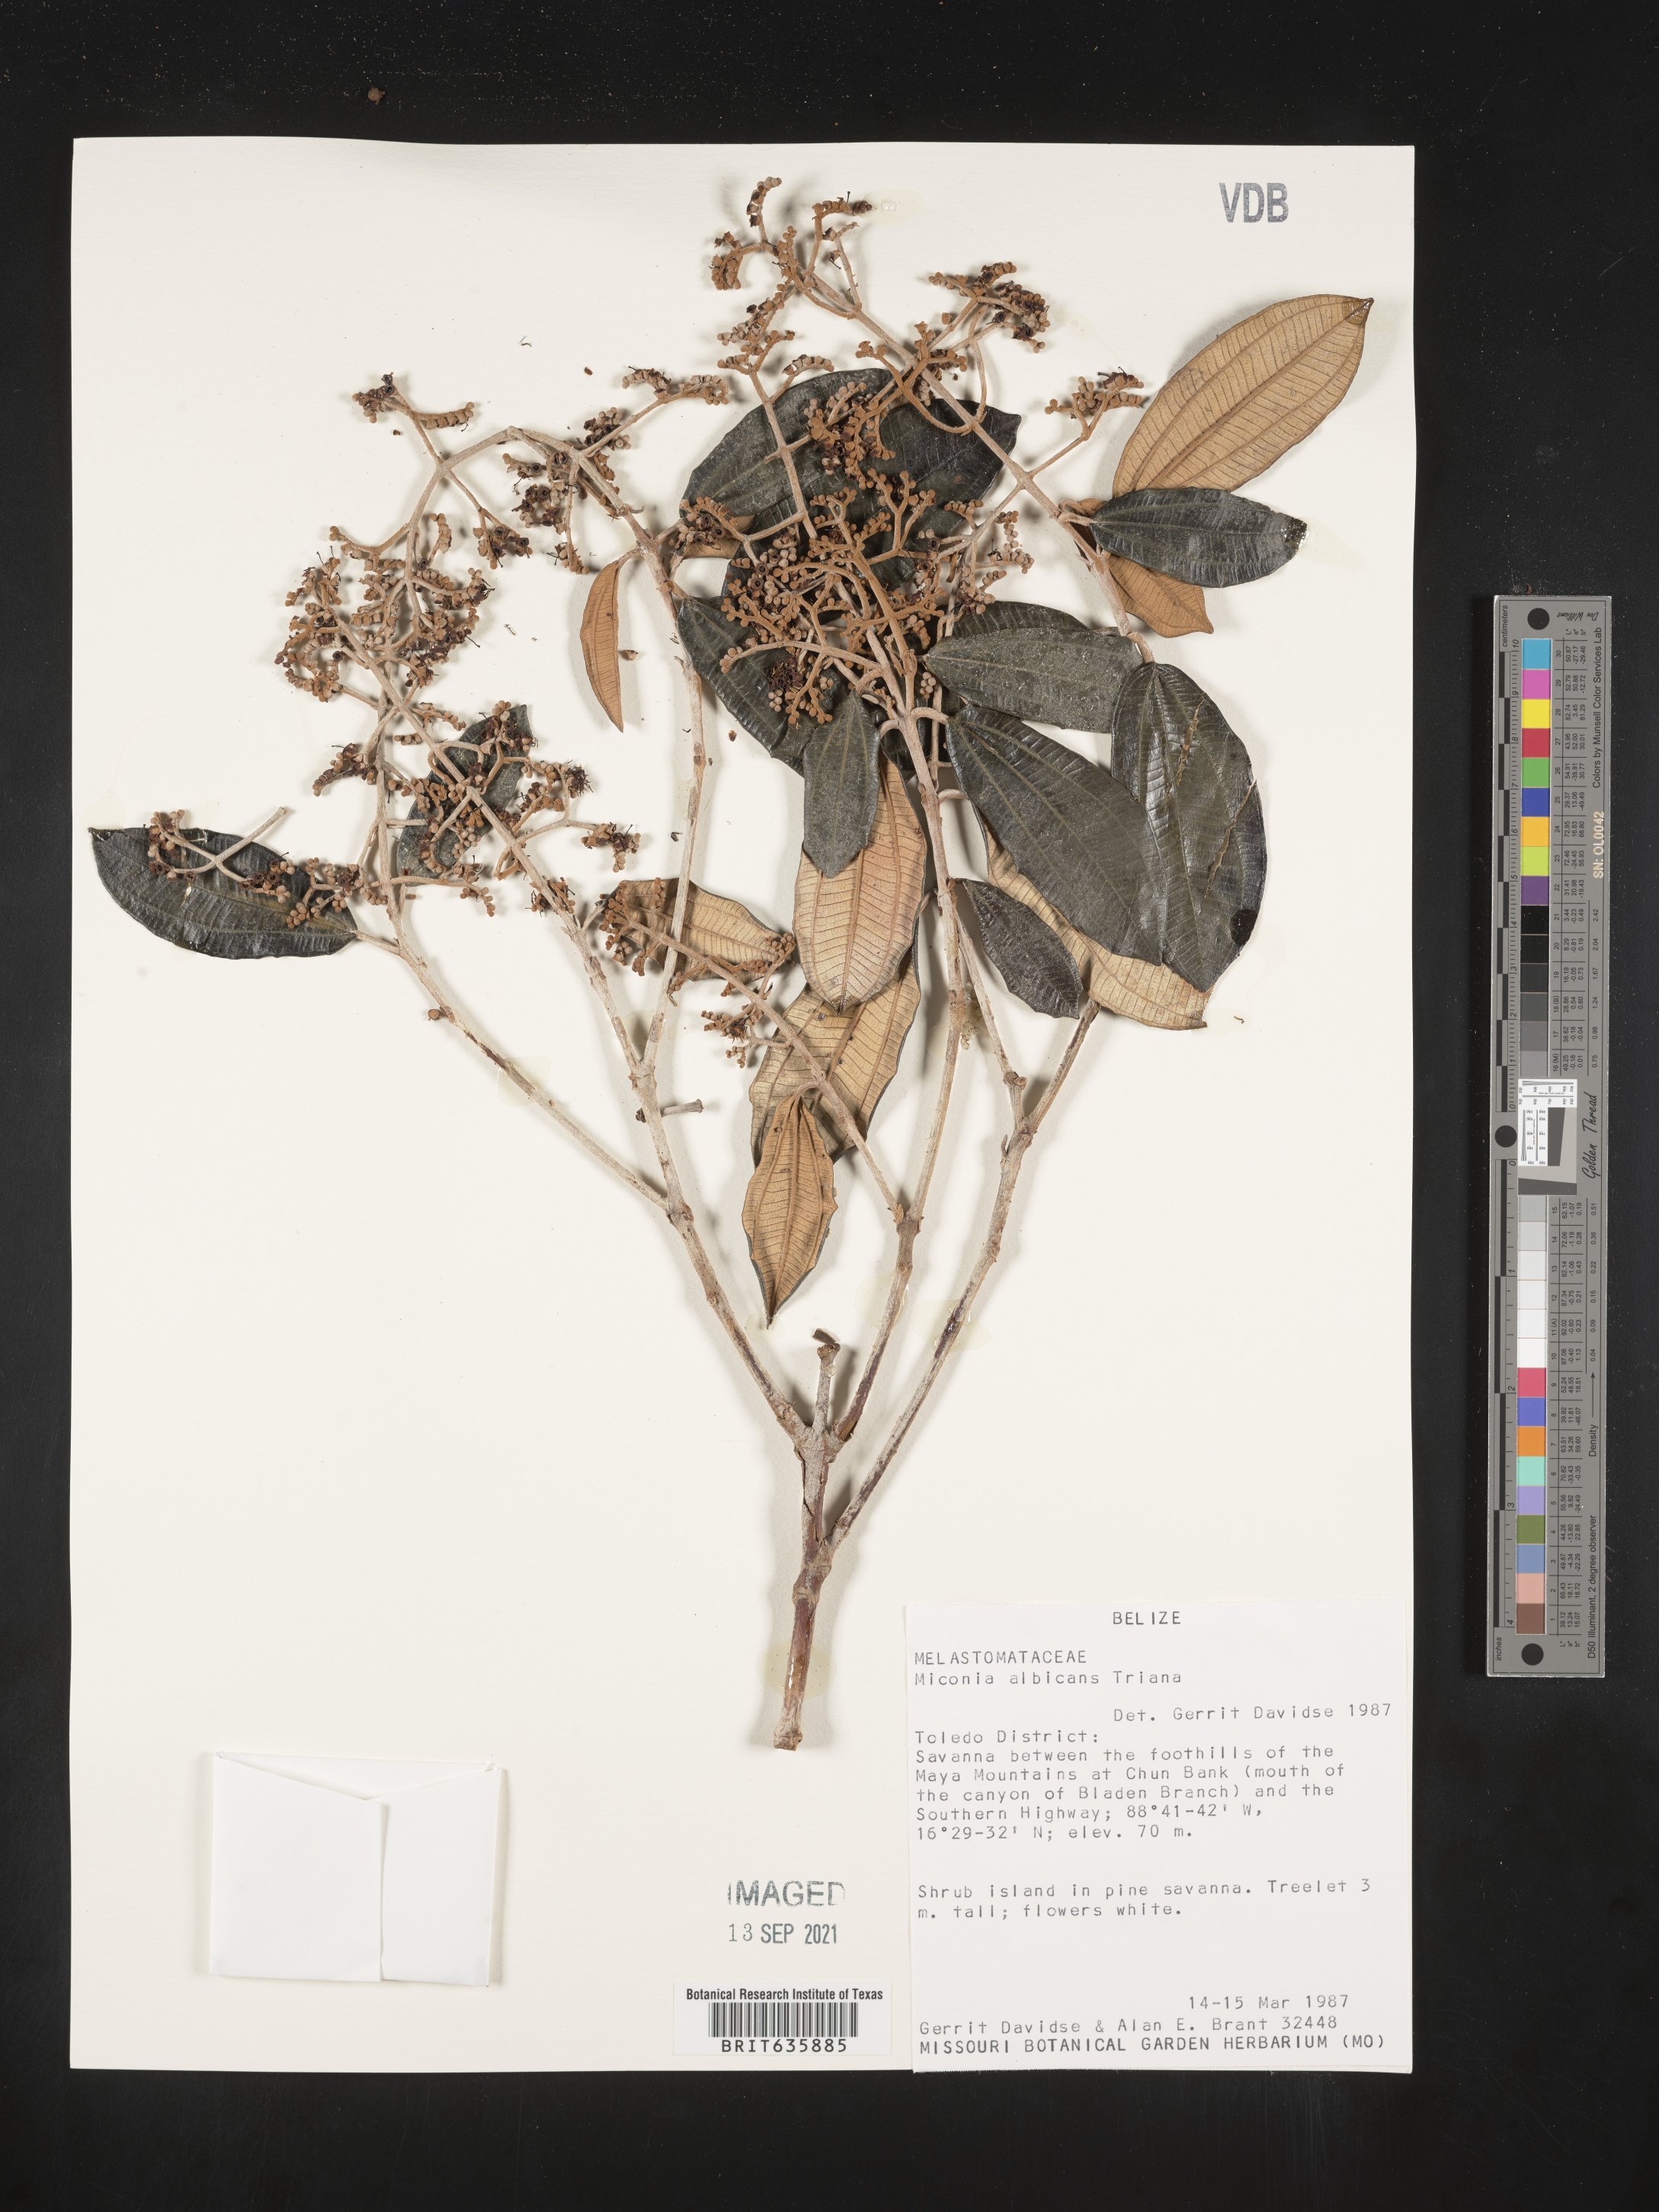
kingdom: Plantae
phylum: Tracheophyta
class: Magnoliopsida
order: Myrtales
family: Melastomataceae
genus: Miconia
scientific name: Miconia
